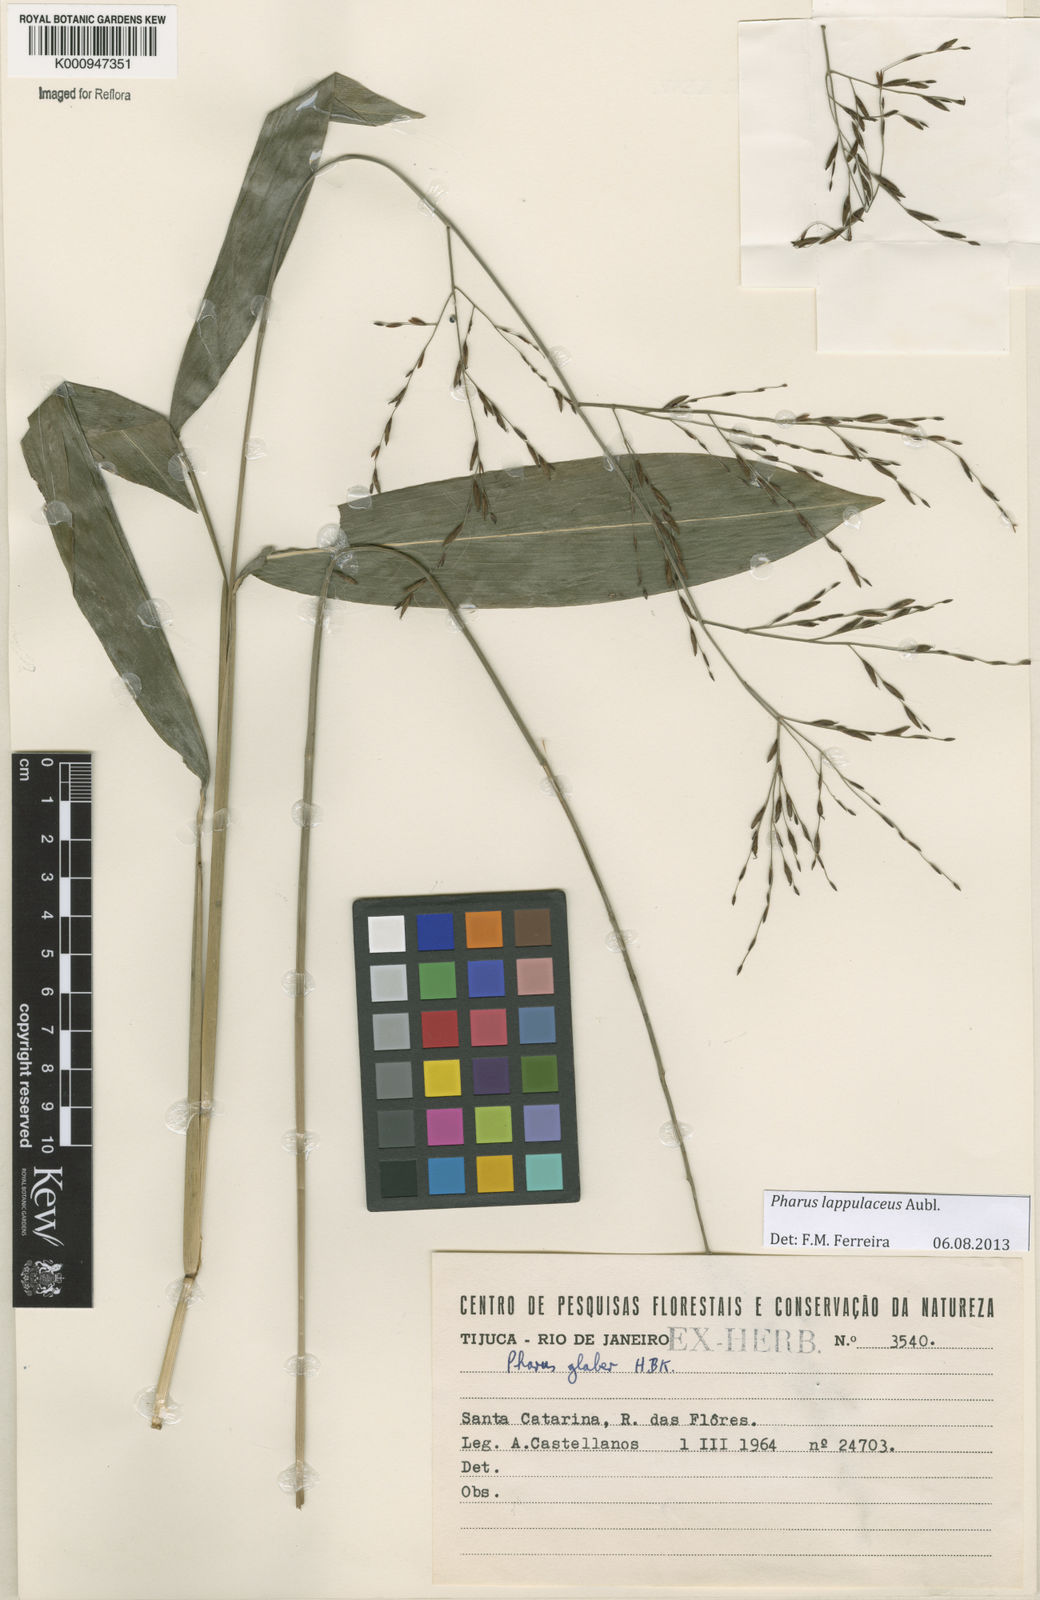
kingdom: Plantae
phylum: Tracheophyta
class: Liliopsida
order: Poales
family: Poaceae
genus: Pharus
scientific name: Pharus lappulaceus
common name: Creeping leafstalk grass
